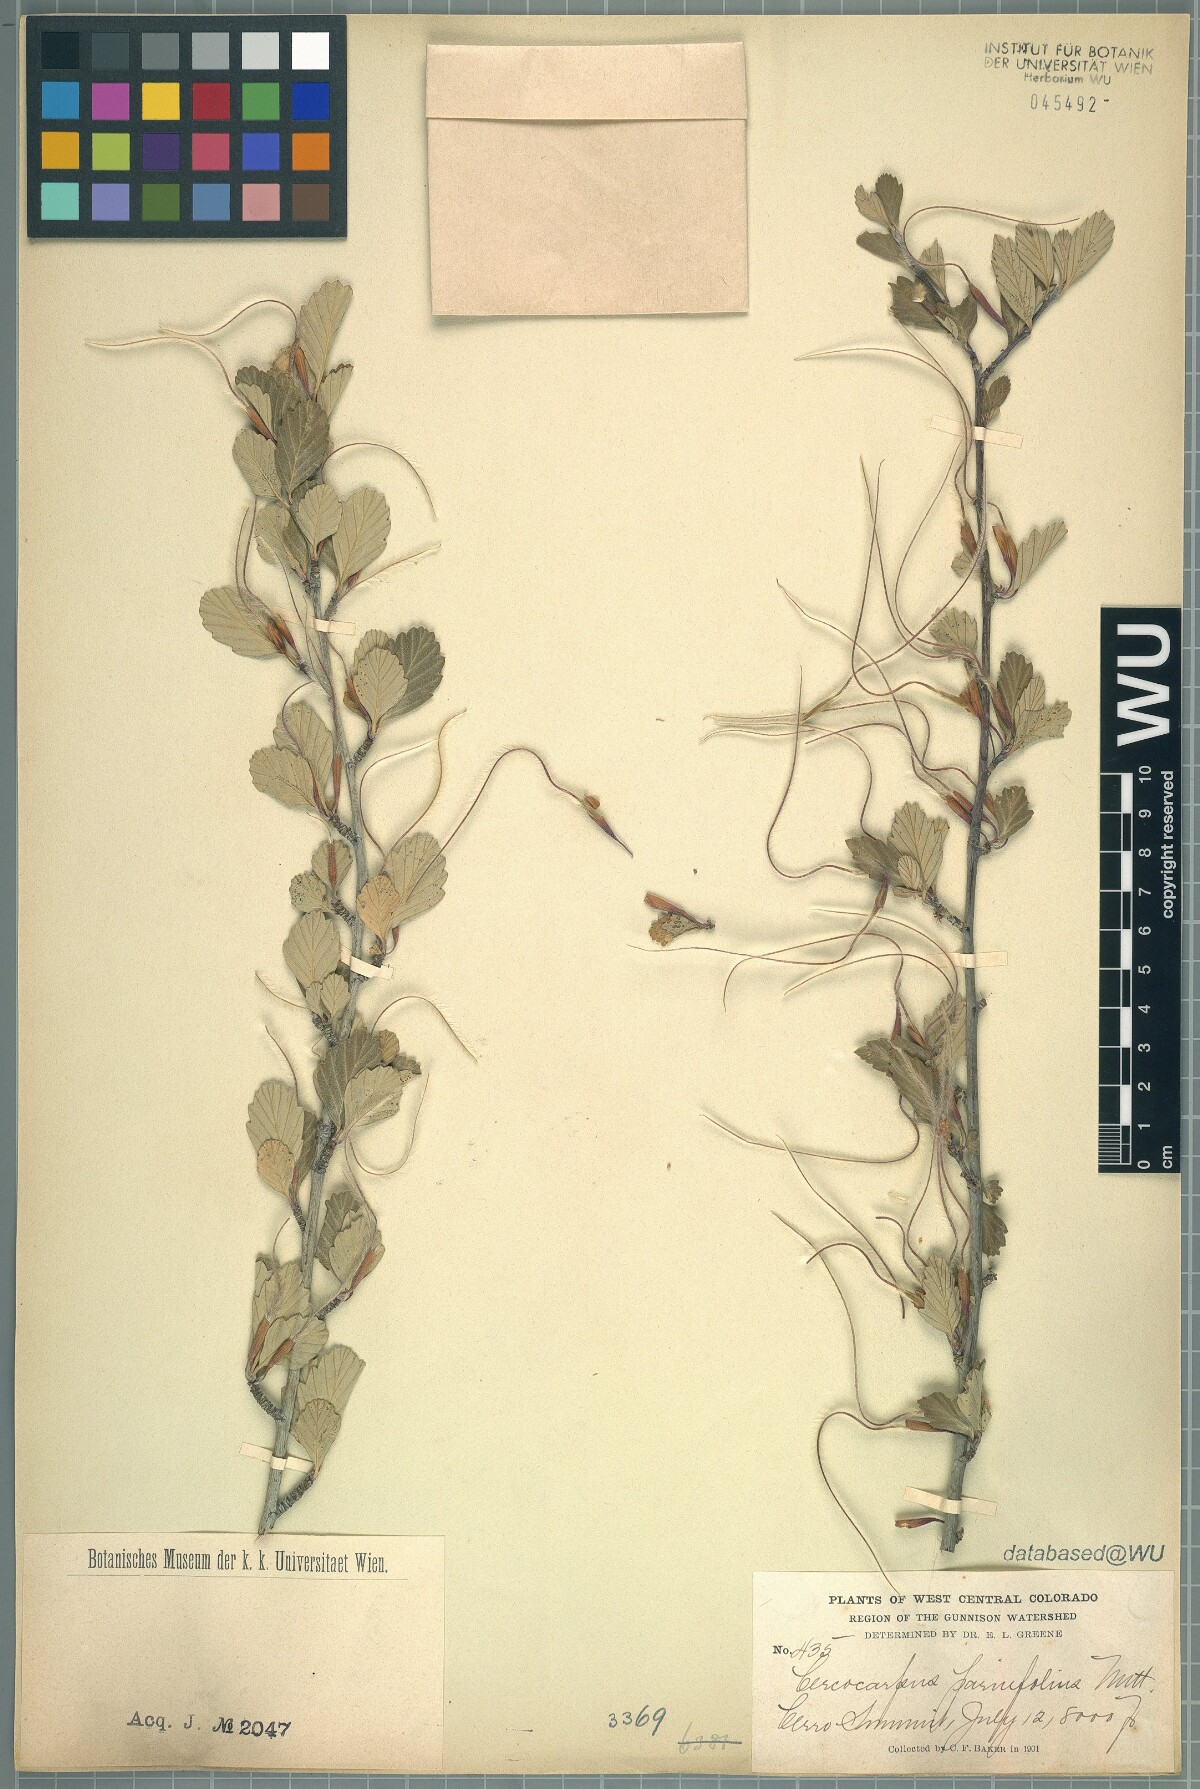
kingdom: Plantae
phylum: Tracheophyta
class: Magnoliopsida
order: Rosales
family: Rosaceae
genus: Cercocarpus
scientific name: Cercocarpus montanus
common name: Alder-leaf cercocarpus
